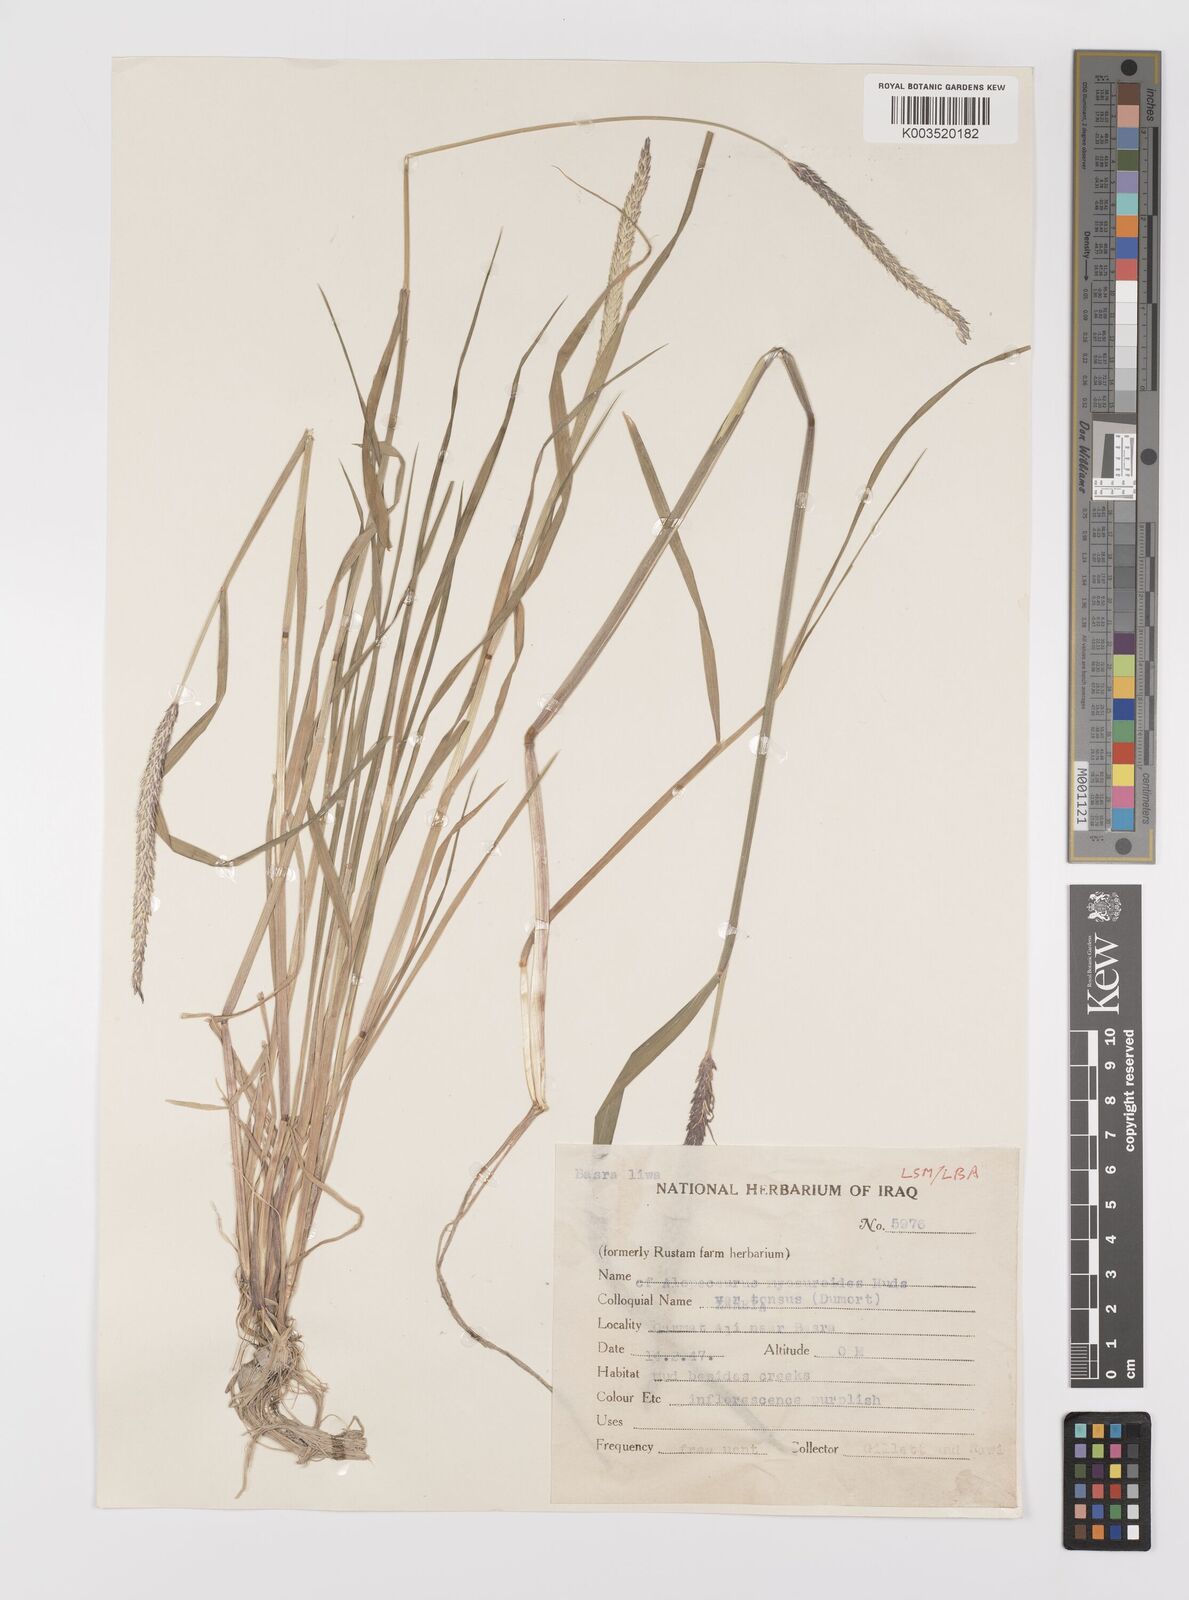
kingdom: Plantae
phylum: Tracheophyta
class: Liliopsida
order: Poales
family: Poaceae
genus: Alopecurus
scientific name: Alopecurus myosuroides
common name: Black-grass
